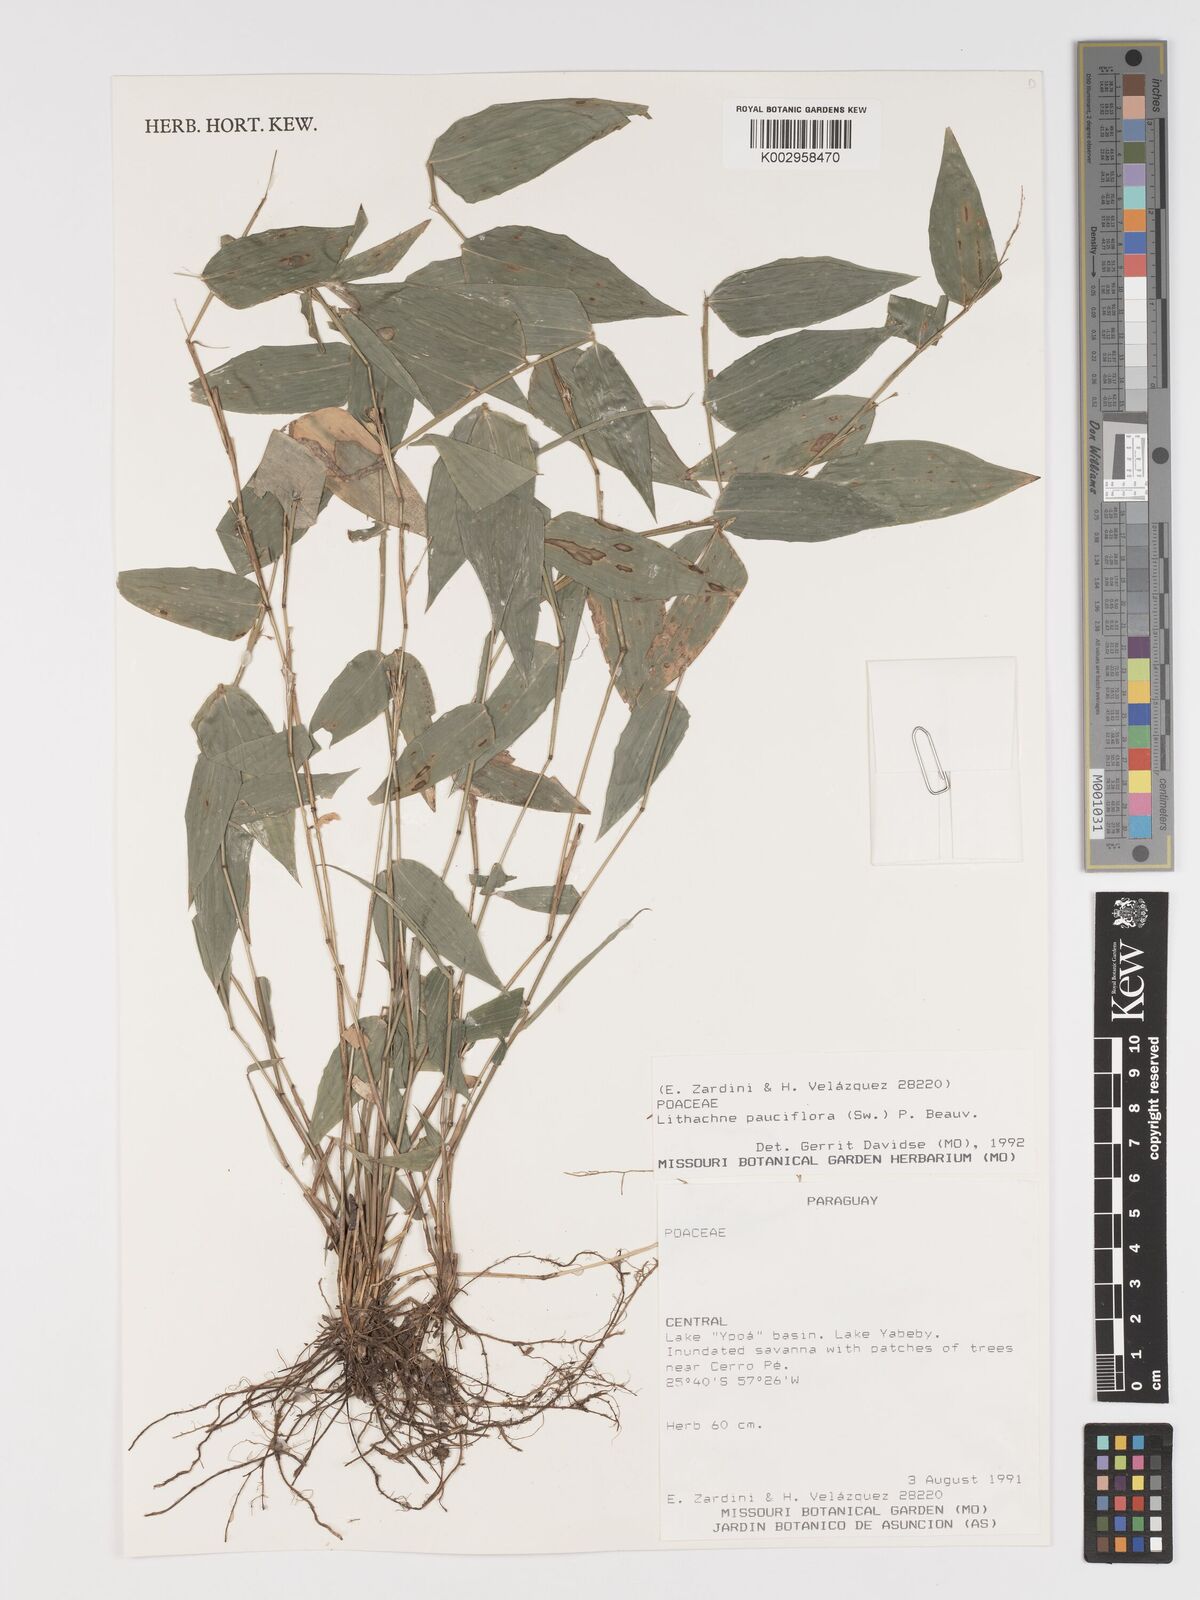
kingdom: Plantae
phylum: Tracheophyta
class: Liliopsida
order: Poales
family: Poaceae
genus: Lithachne
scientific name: Lithachne pauciflora
